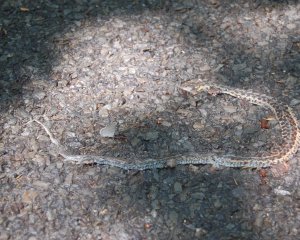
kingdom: Animalia
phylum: Arthropoda
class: Insecta
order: Lepidoptera
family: Lycaenidae
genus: Celastrina
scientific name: Celastrina
